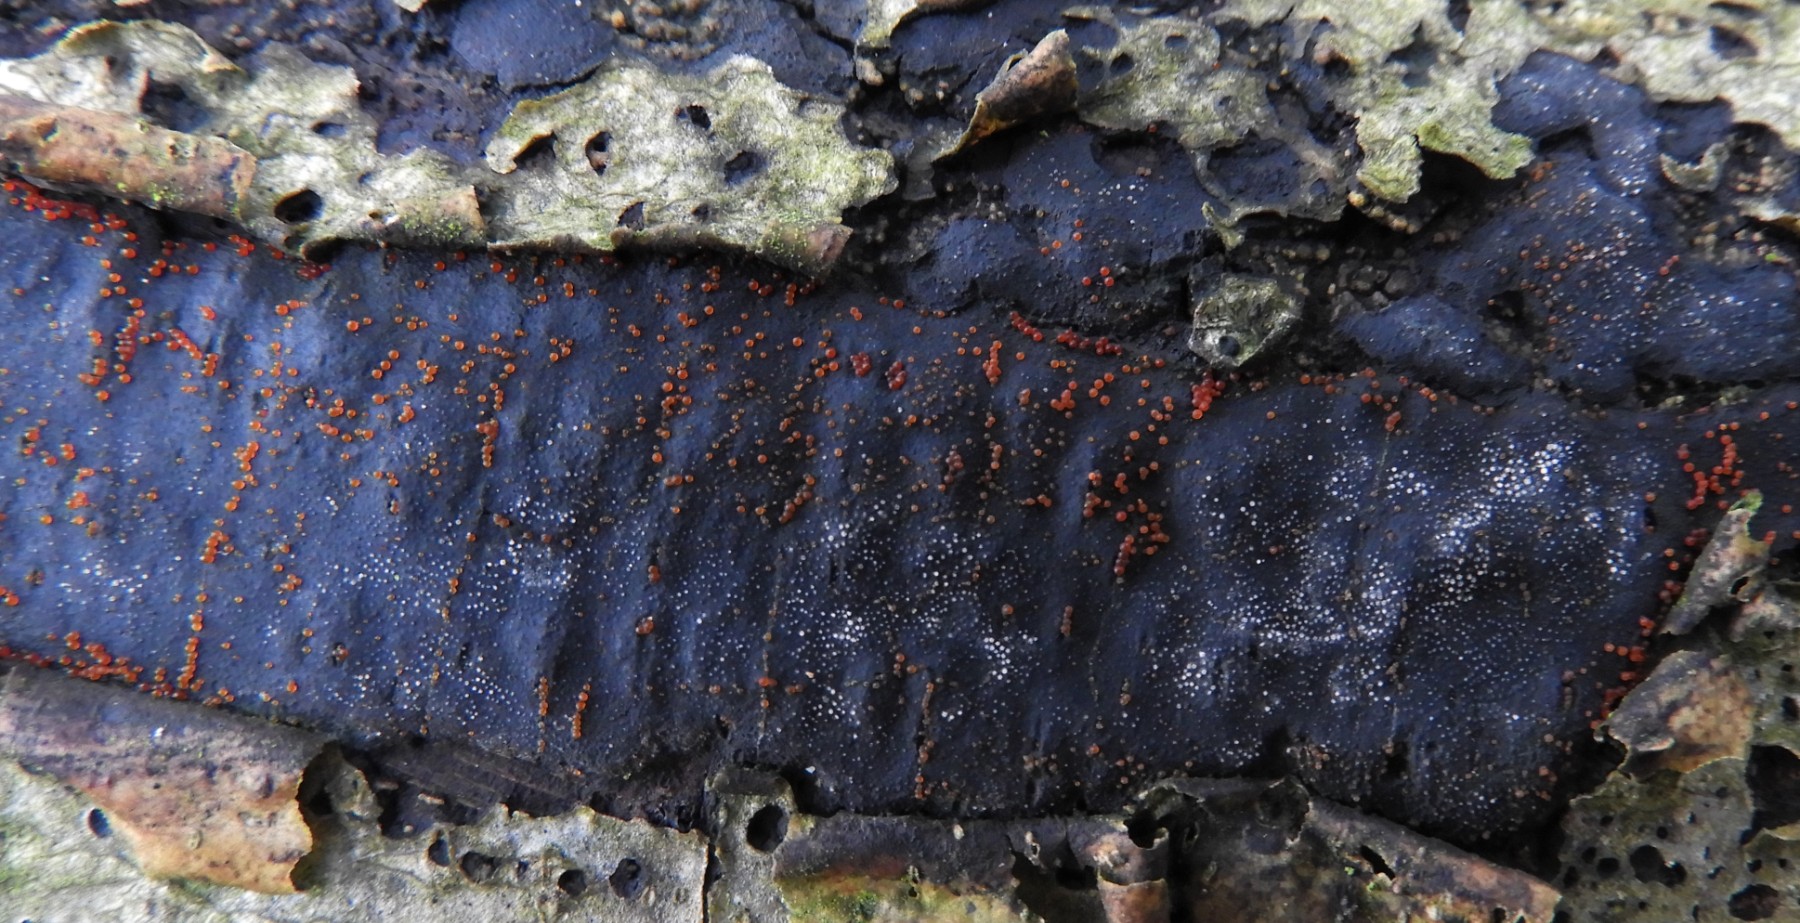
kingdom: Fungi
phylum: Ascomycota
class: Sordariomycetes
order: Hypocreales
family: Nectriaceae
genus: Dialonectria
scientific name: Dialonectria episphaeria
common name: kulskorpe-cinnobersvamp
